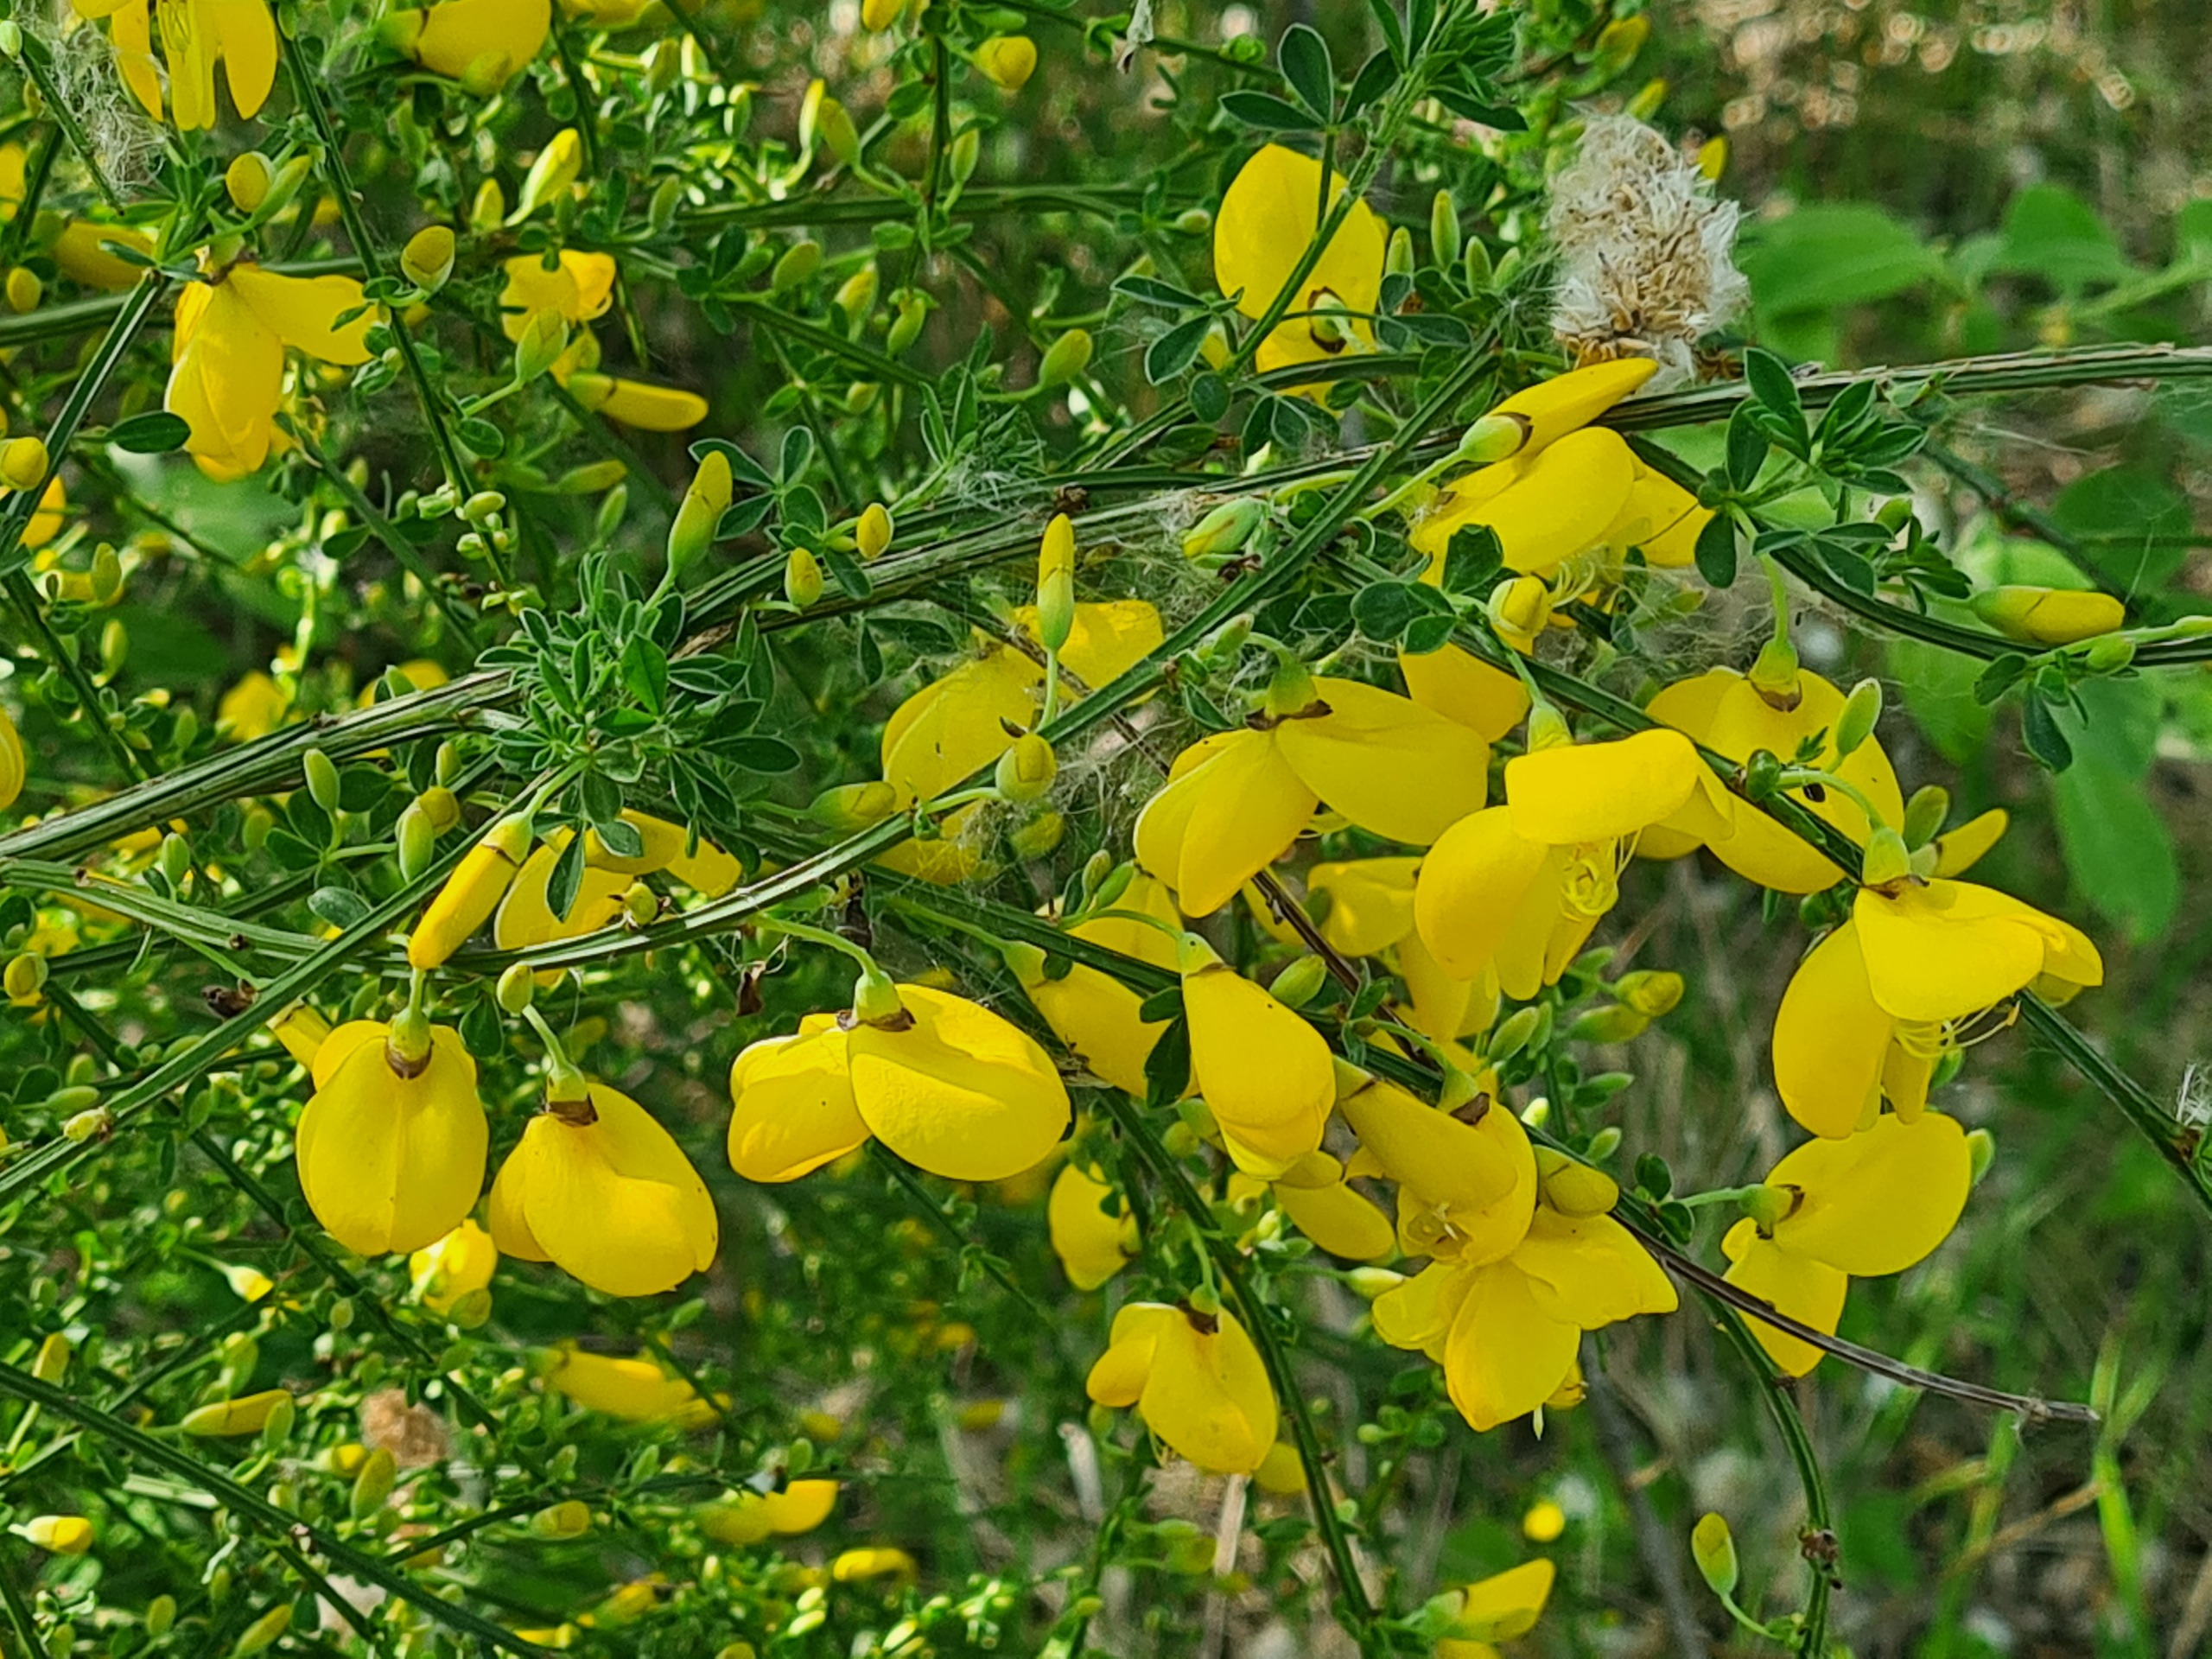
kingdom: Plantae
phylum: Tracheophyta
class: Magnoliopsida
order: Fabales
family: Fabaceae
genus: Cytisus
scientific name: Cytisus scoparius
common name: Almindelig gyvel
